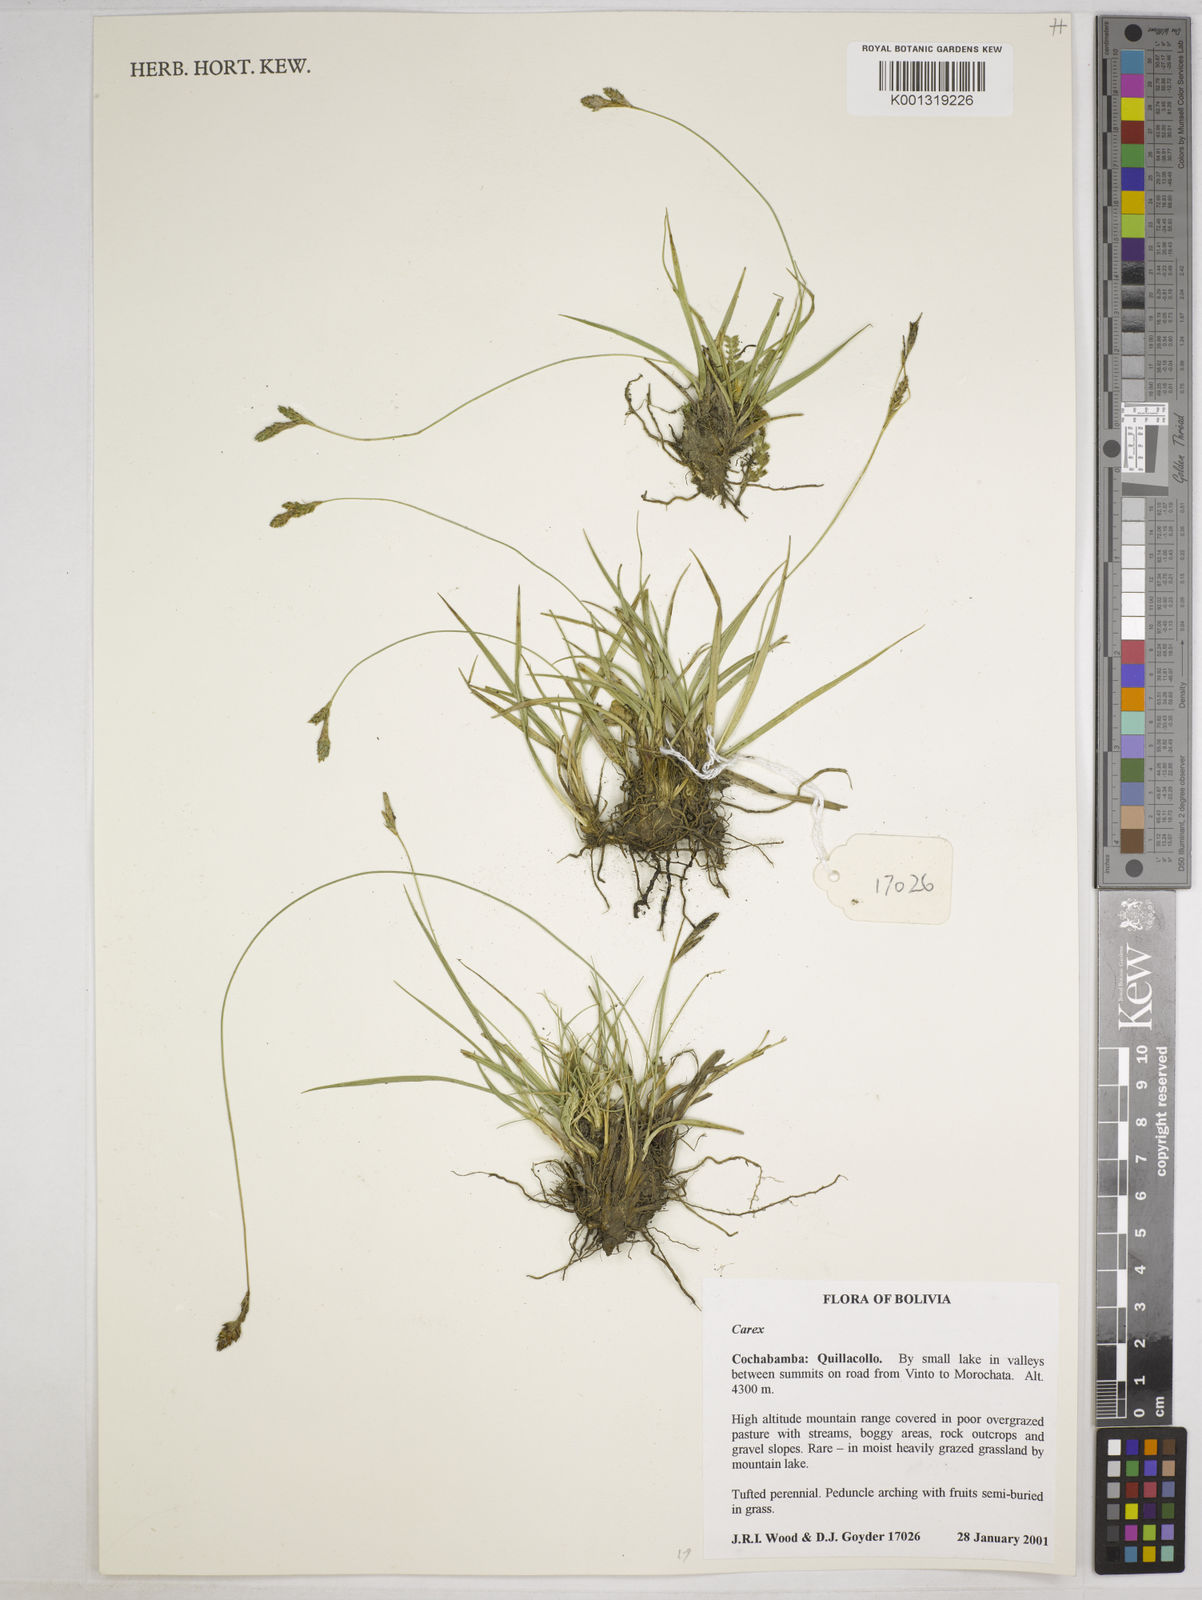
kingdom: Plantae
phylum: Tracheophyta
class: Liliopsida
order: Poales
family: Cyperaceae
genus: Carex
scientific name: Carex boliviensis
